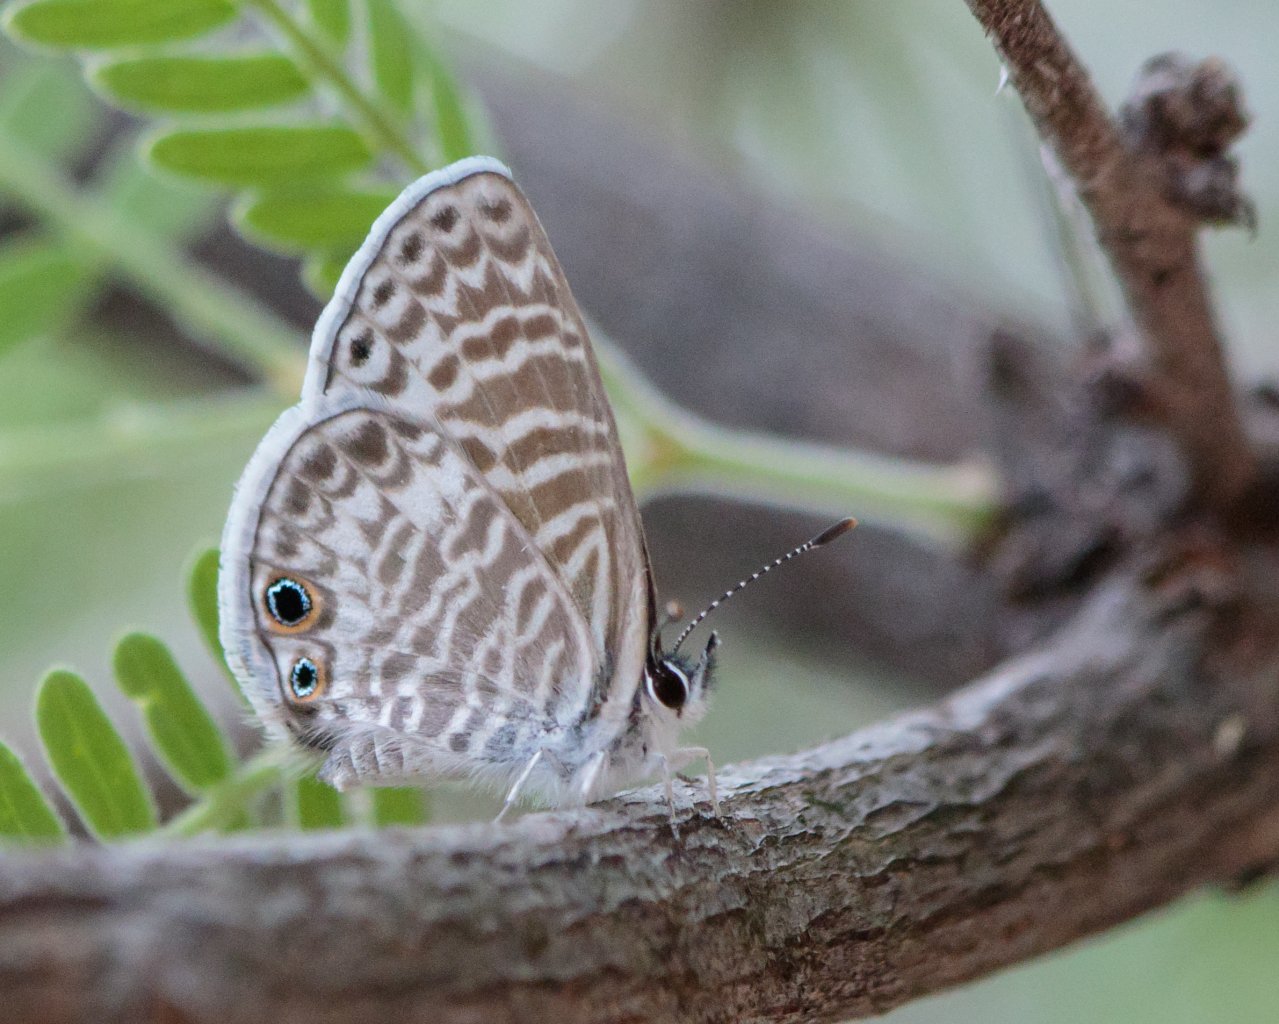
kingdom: Animalia
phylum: Arthropoda
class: Insecta
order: Lepidoptera
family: Lycaenidae
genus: Leptotes
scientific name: Leptotes marina
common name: Marine Blue
